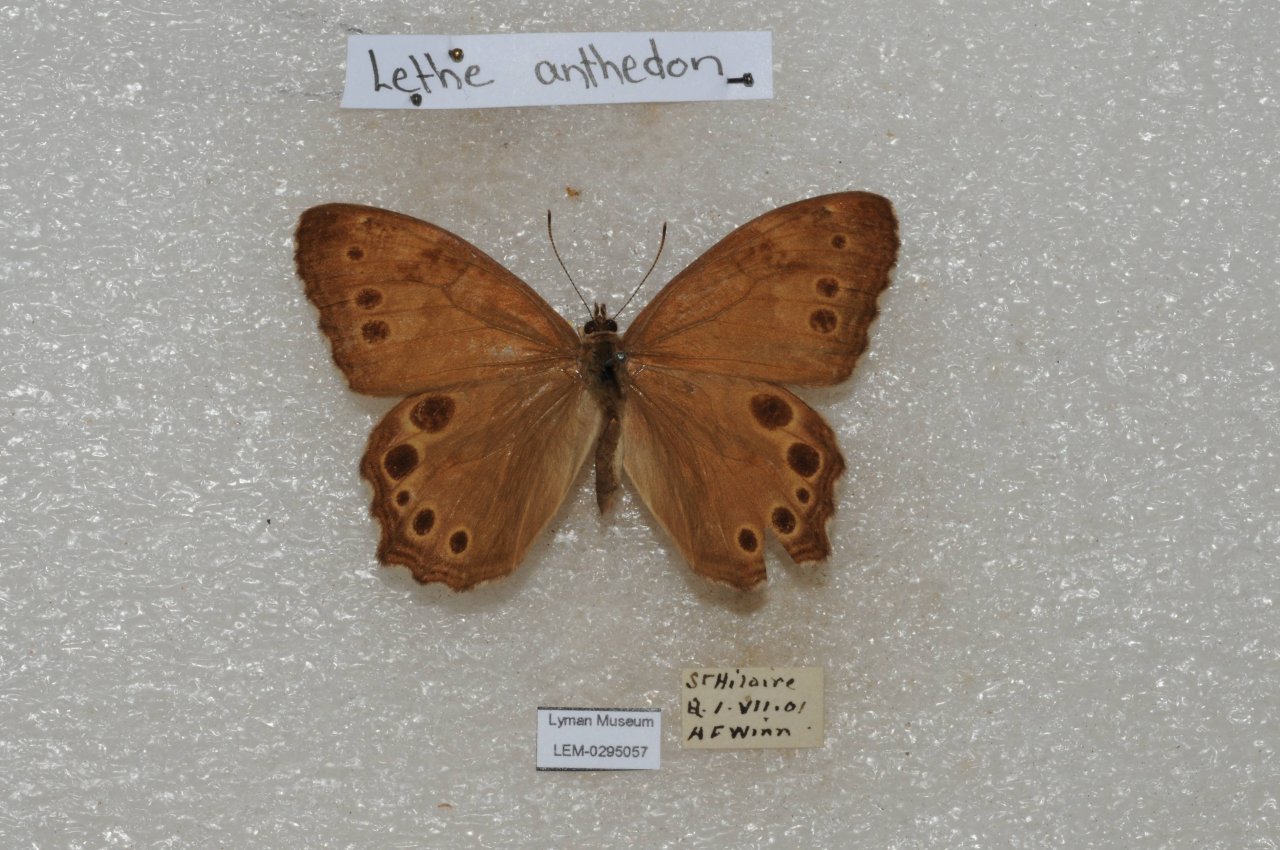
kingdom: Animalia
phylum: Arthropoda
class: Insecta
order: Lepidoptera
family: Nymphalidae
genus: Lethe
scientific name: Lethe anthedon
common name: Northern Pearly-Eye
